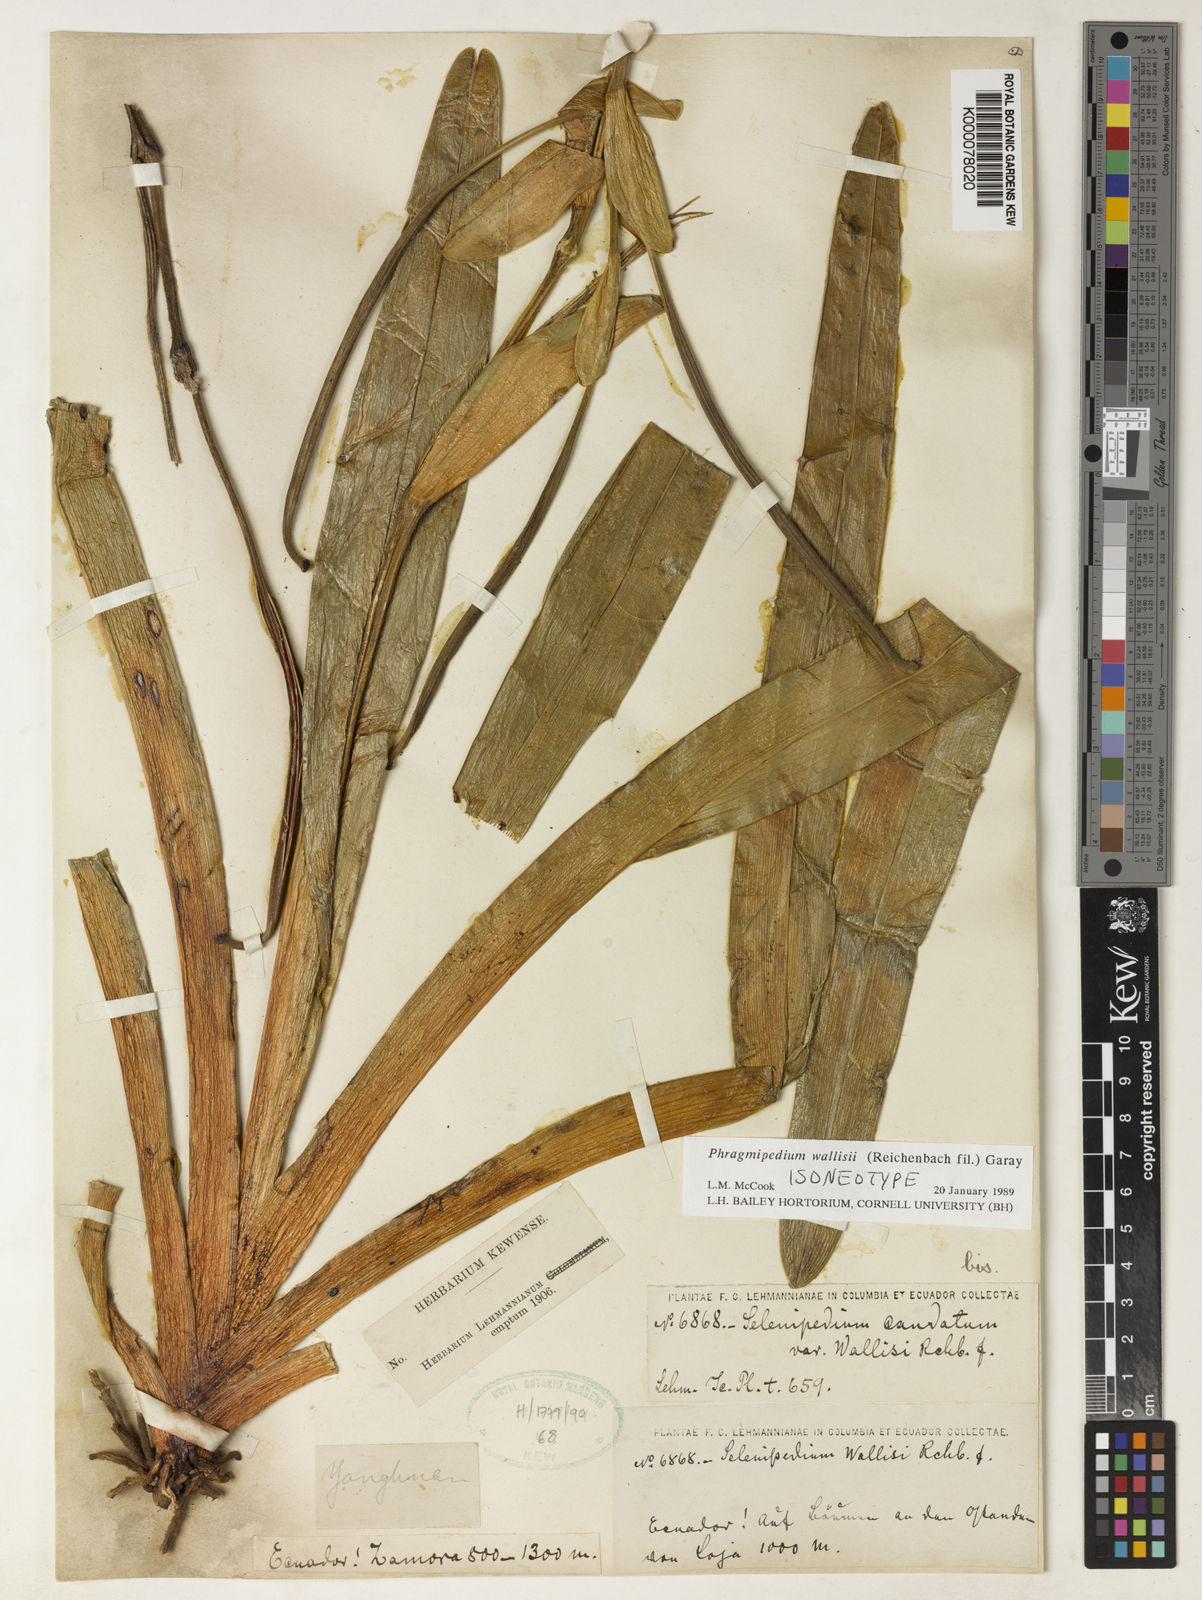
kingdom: Plantae
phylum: Tracheophyta
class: Liliopsida
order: Asparagales
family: Orchidaceae
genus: Phragmipedium
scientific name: Phragmipedium warszewiczianum
